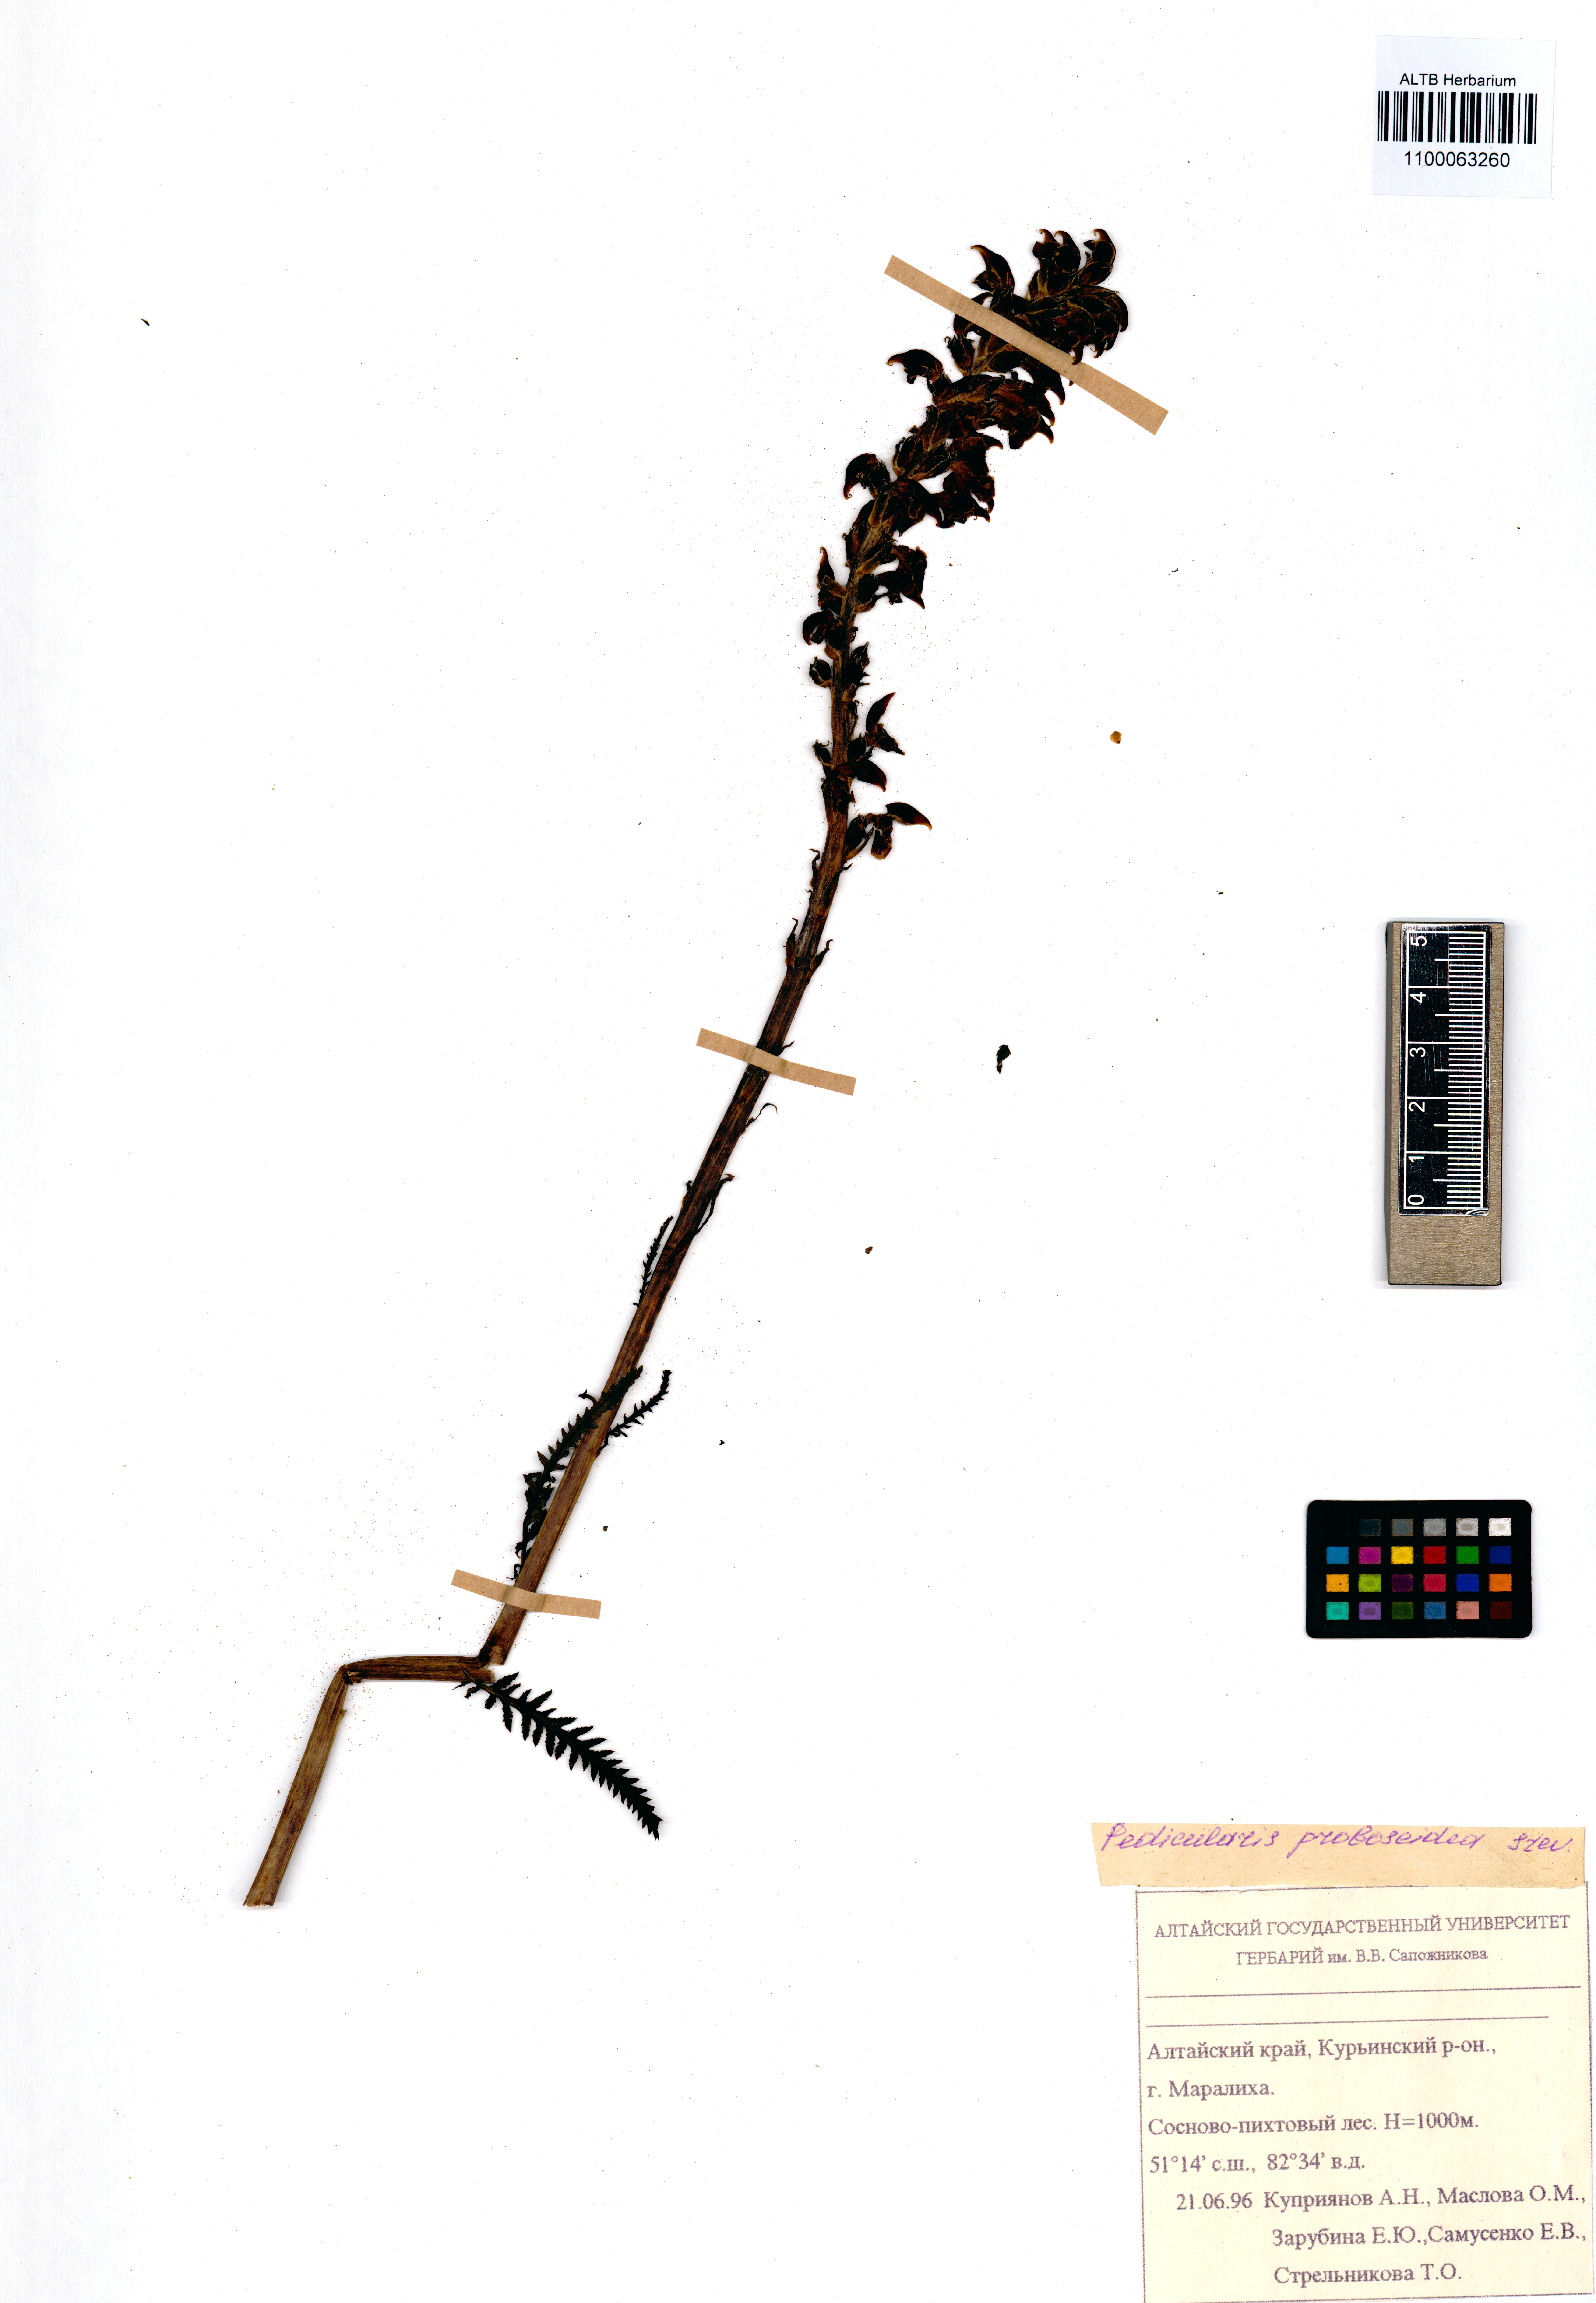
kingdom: Plantae
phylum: Tracheophyta
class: Magnoliopsida
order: Lamiales
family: Orobanchaceae
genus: Pedicularis
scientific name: Pedicularis cenisia
